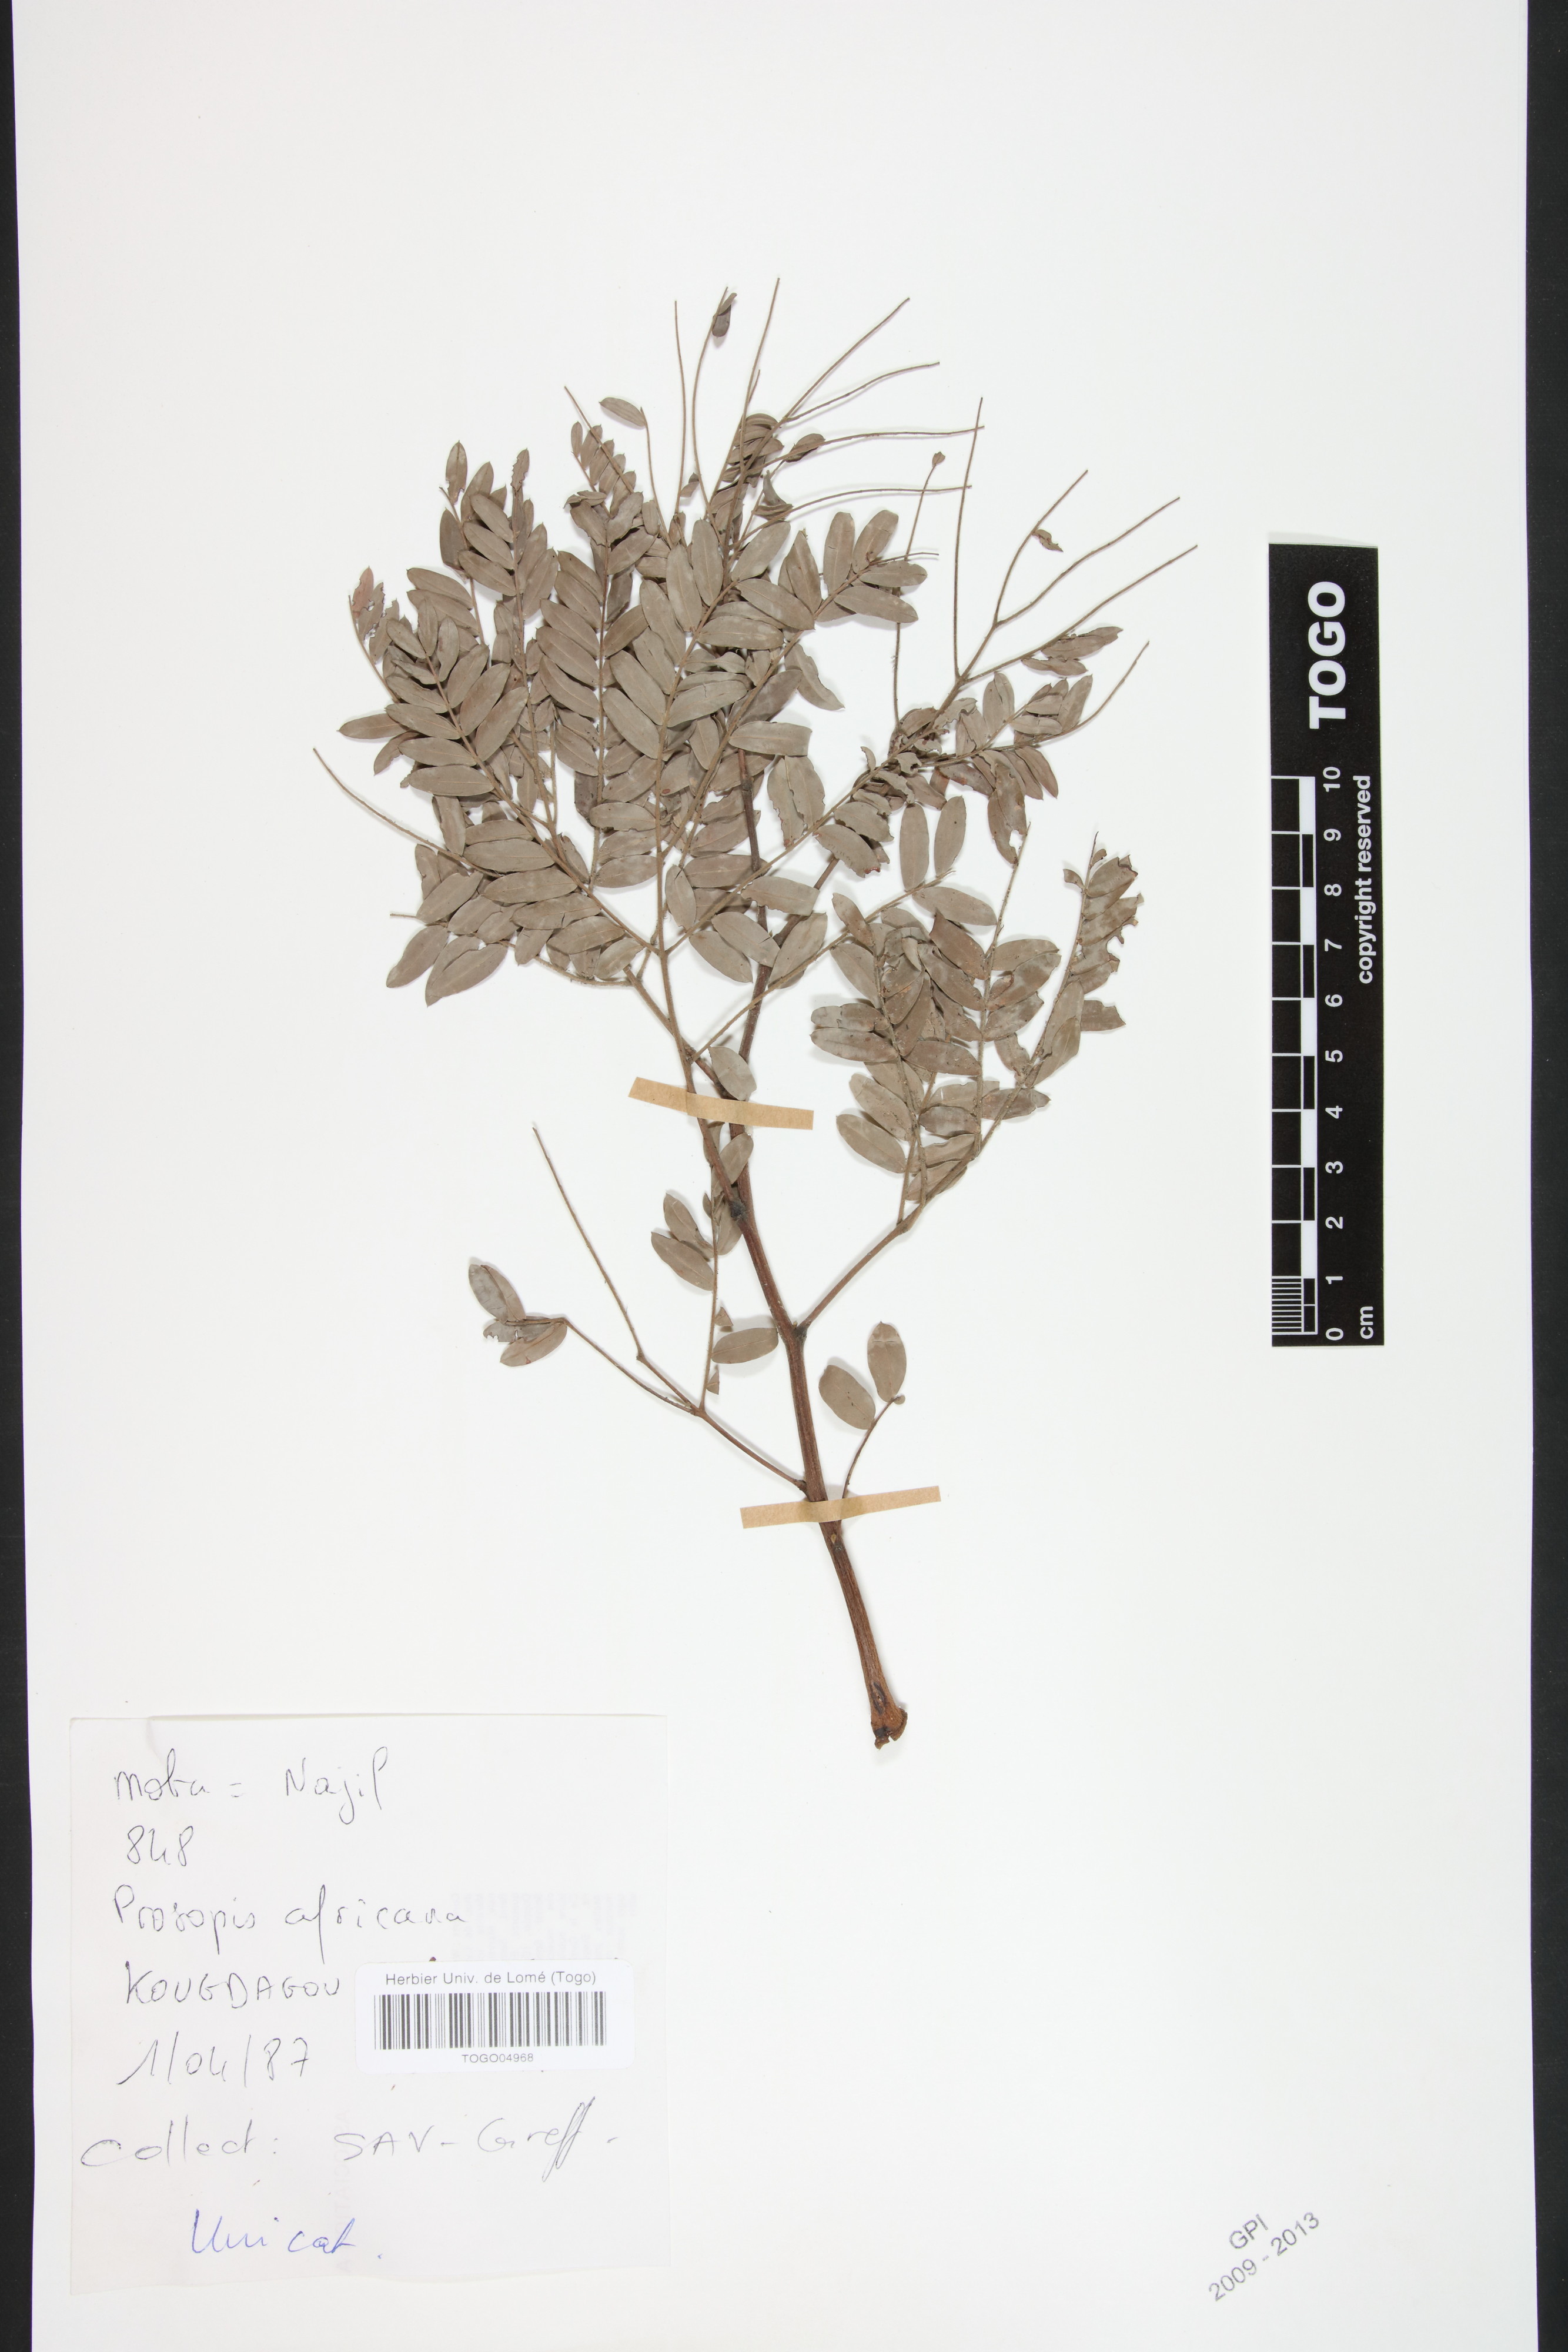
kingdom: Plantae
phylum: Tracheophyta
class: Magnoliopsida
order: Fabales
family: Fabaceae
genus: Prosopis
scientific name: Prosopis africana
